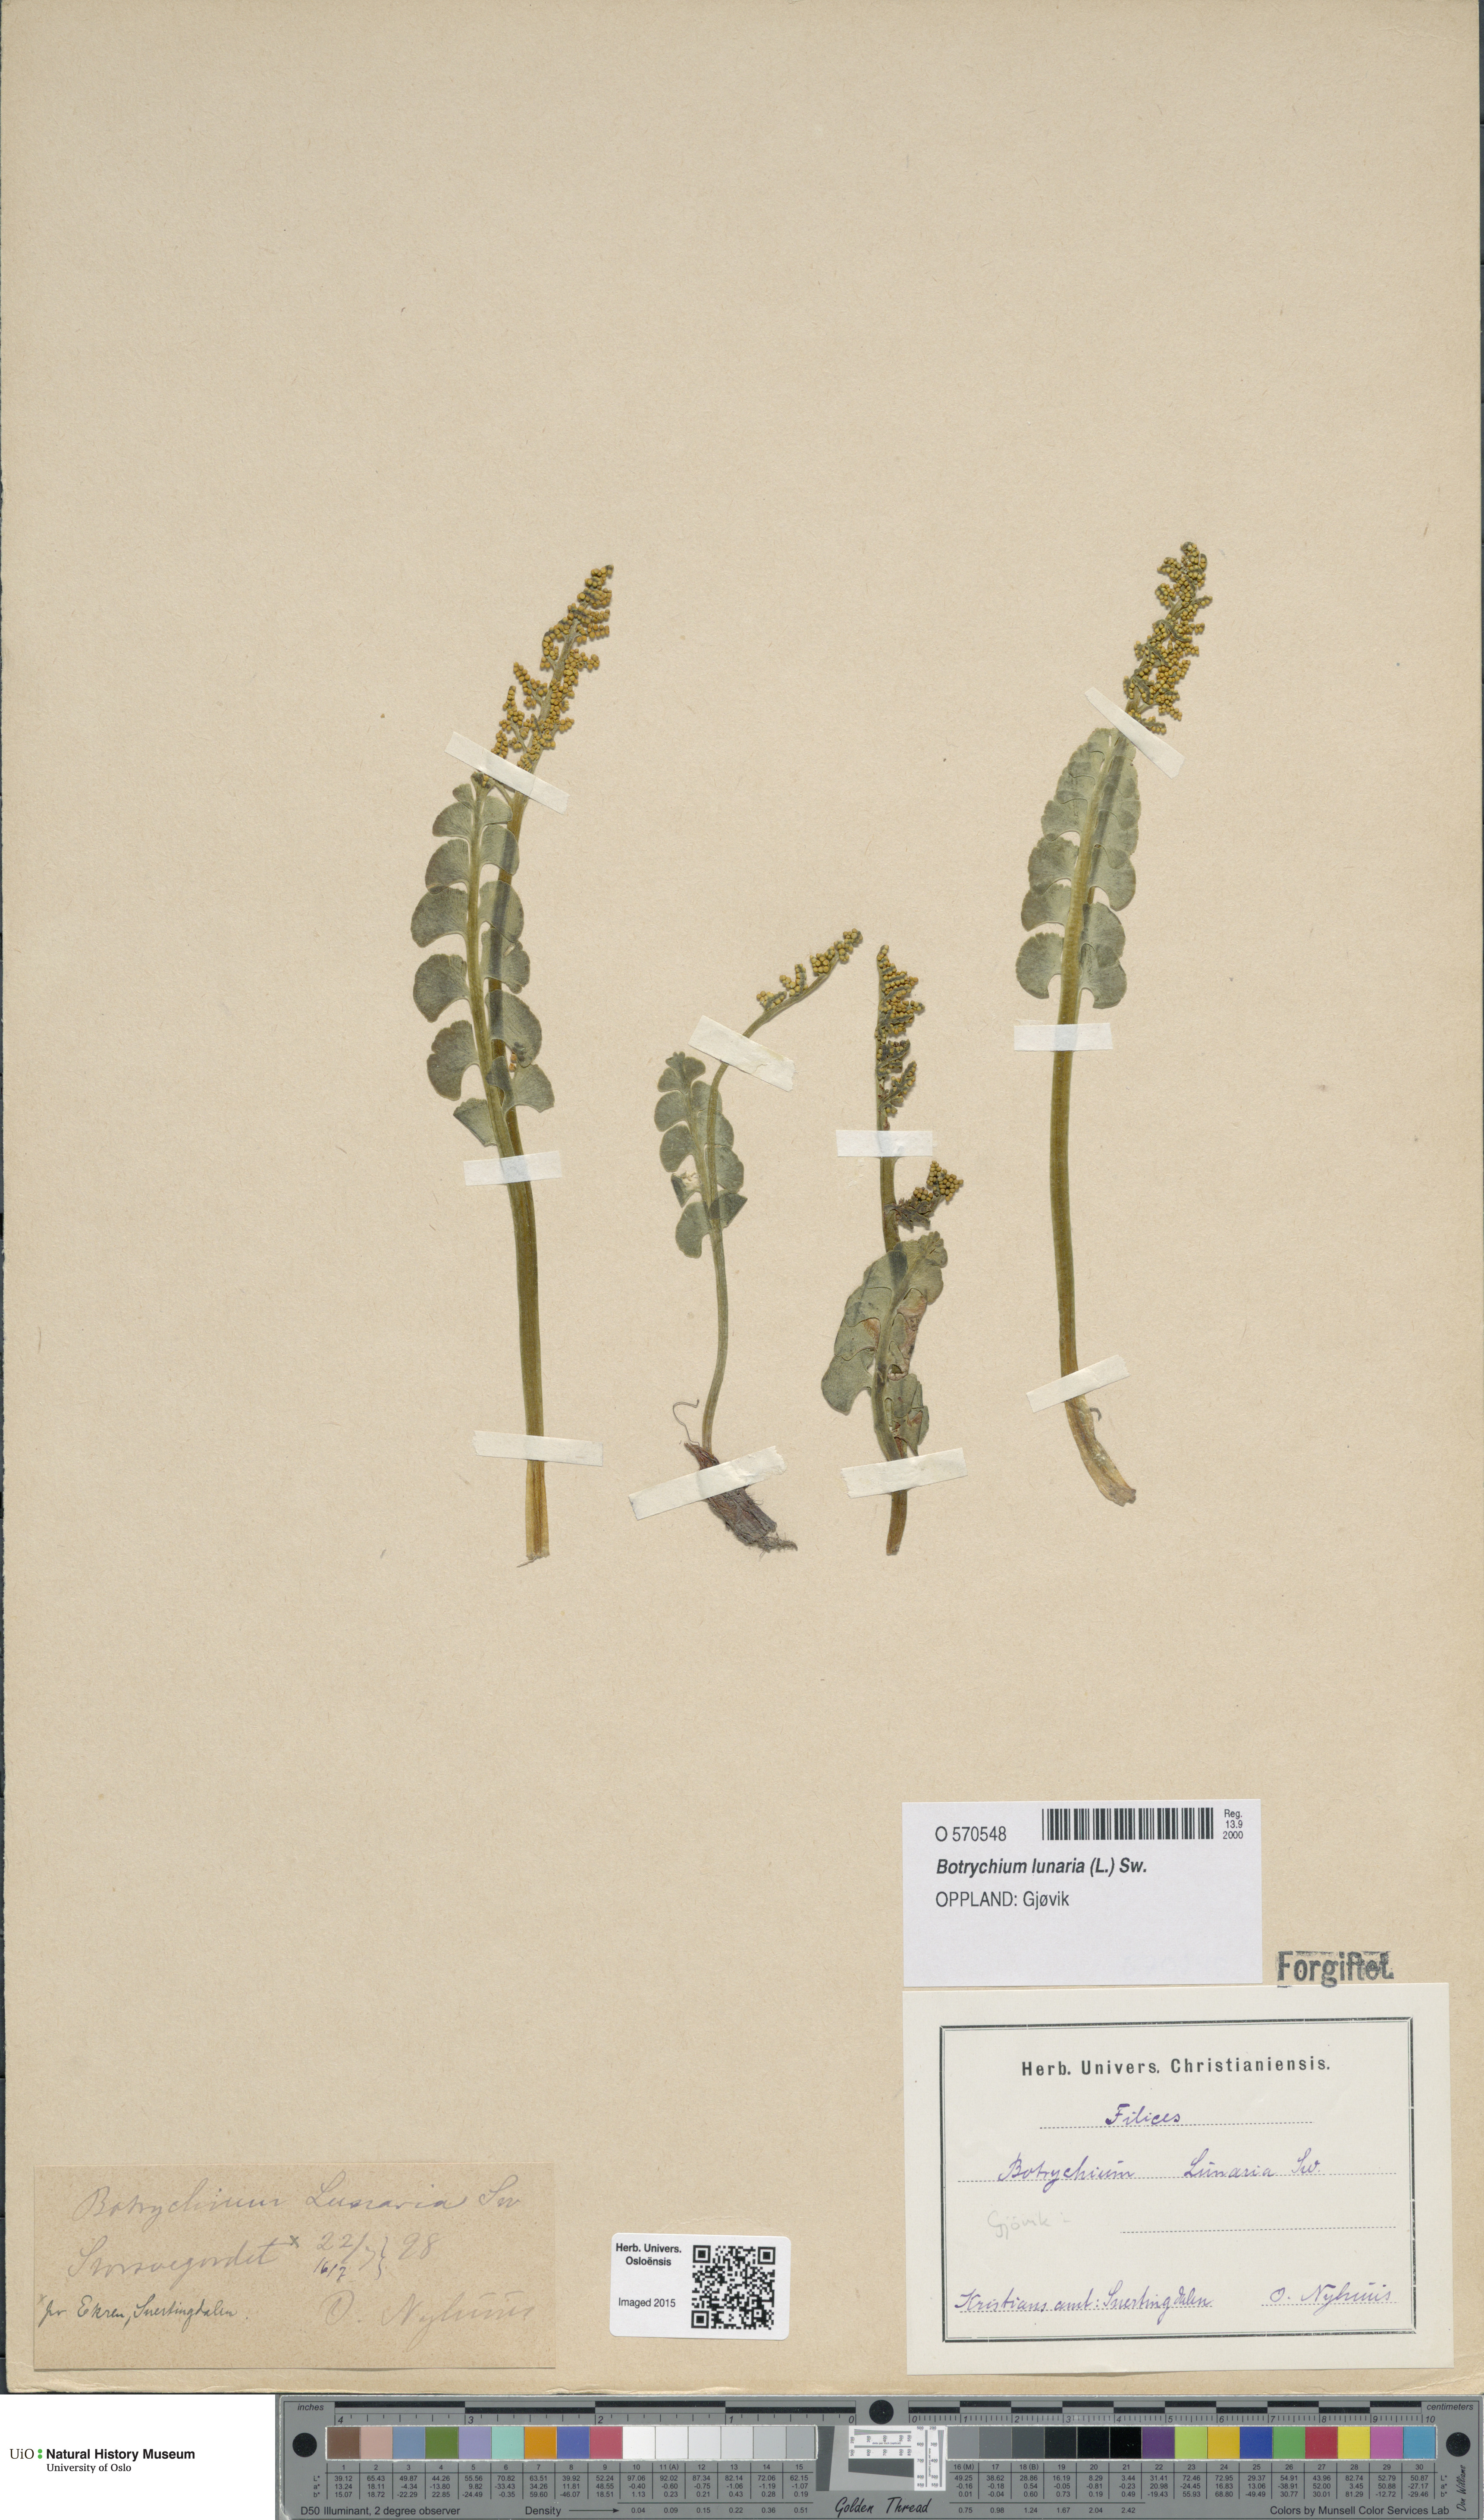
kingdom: Plantae
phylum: Tracheophyta
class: Polypodiopsida
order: Ophioglossales
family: Ophioglossaceae
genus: Botrychium
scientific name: Botrychium lunaria
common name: Moonwort
